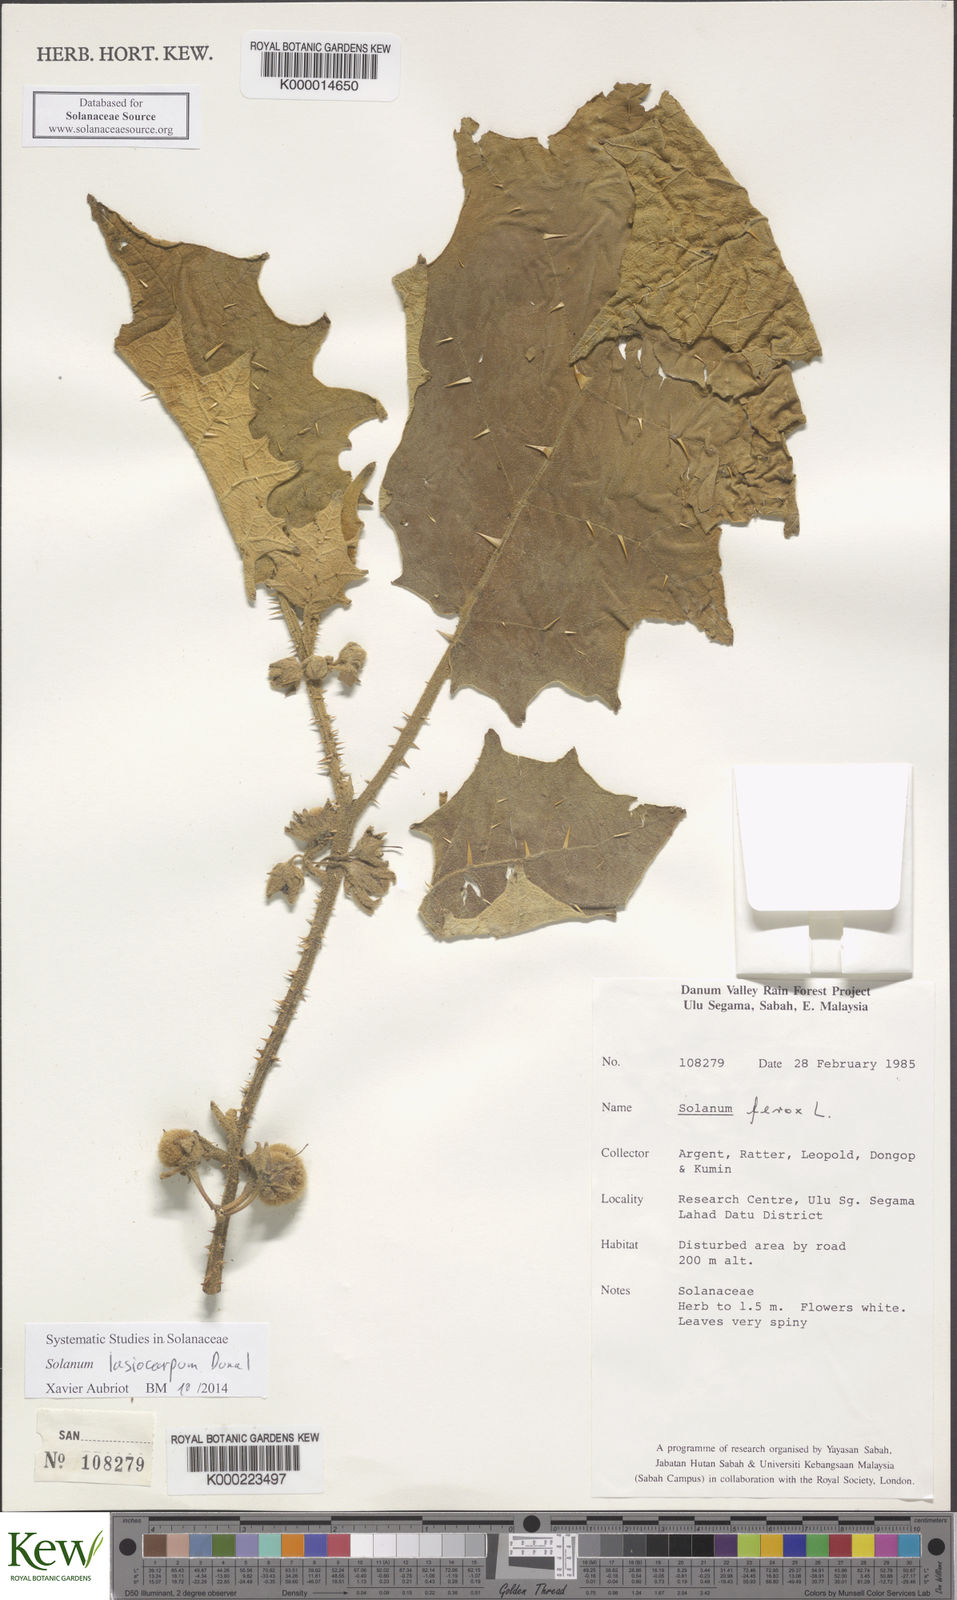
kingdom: Plantae
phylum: Tracheophyta
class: Magnoliopsida
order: Solanales
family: Solanaceae
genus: Solanum
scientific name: Solanum lasiocarpum
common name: Indian nightshade
